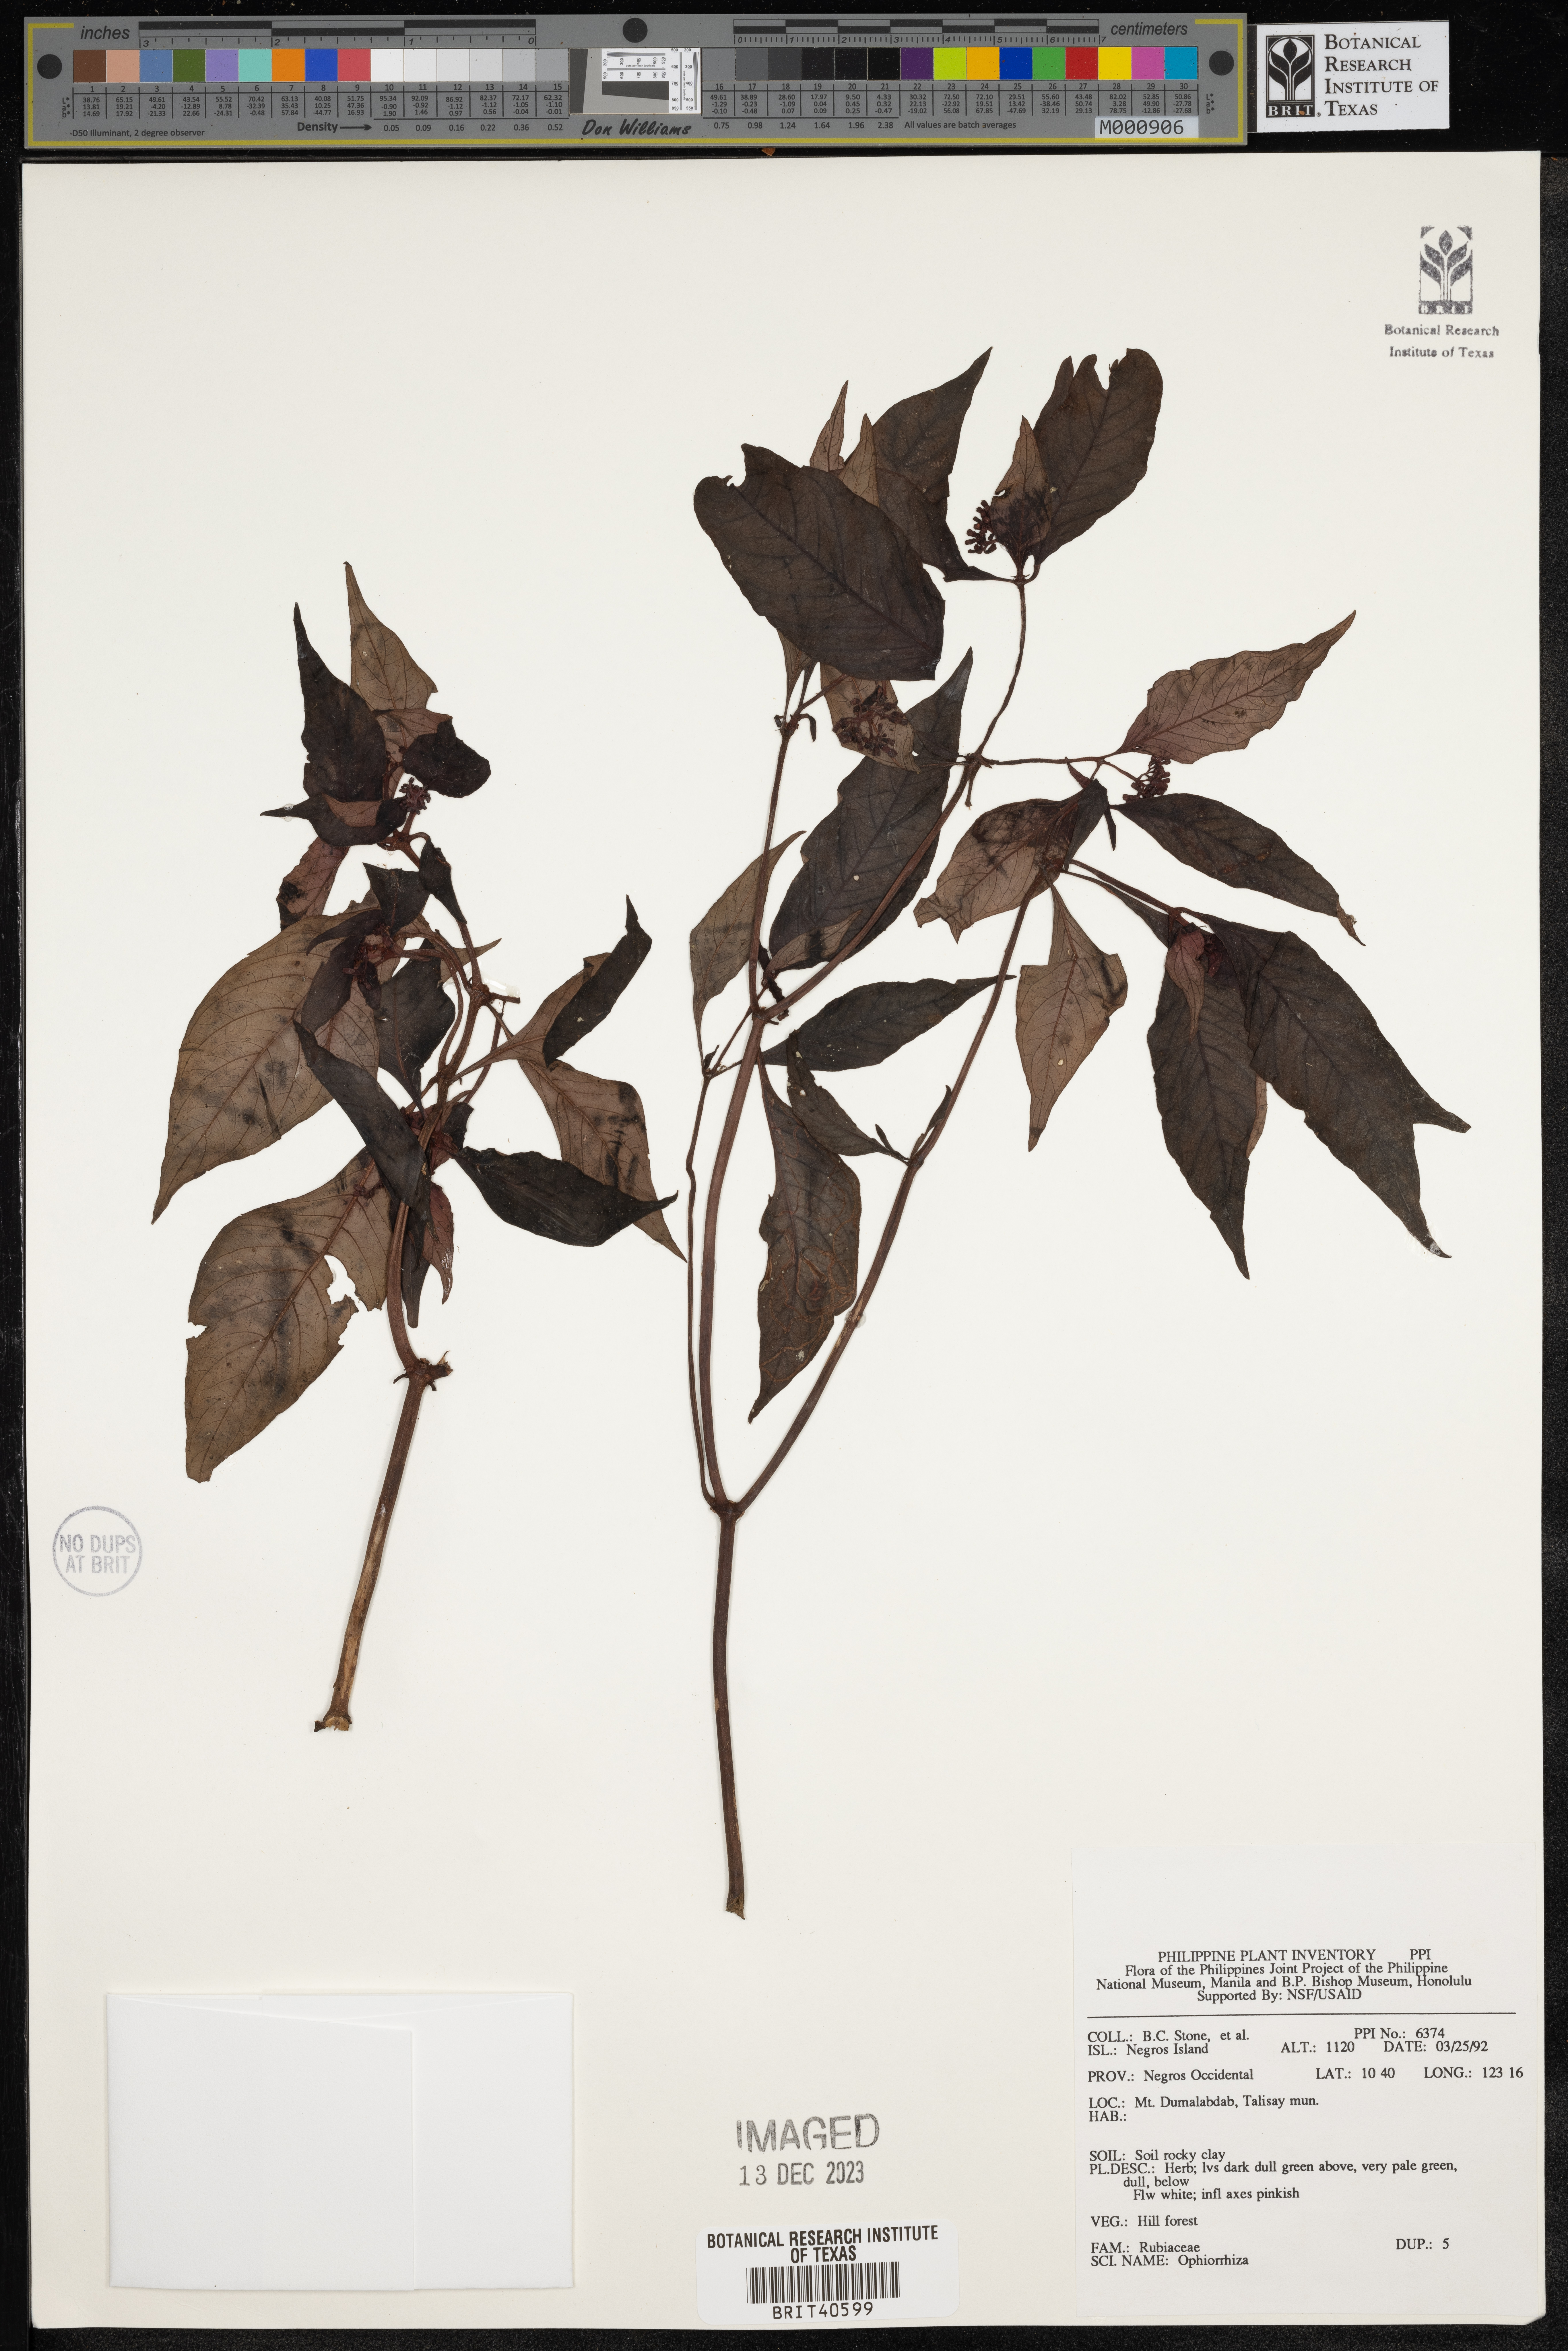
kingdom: Plantae
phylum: Tracheophyta
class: Magnoliopsida
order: Gentianales
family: Rubiaceae
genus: Ophiorrhiza
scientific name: Ophiorrhiza
